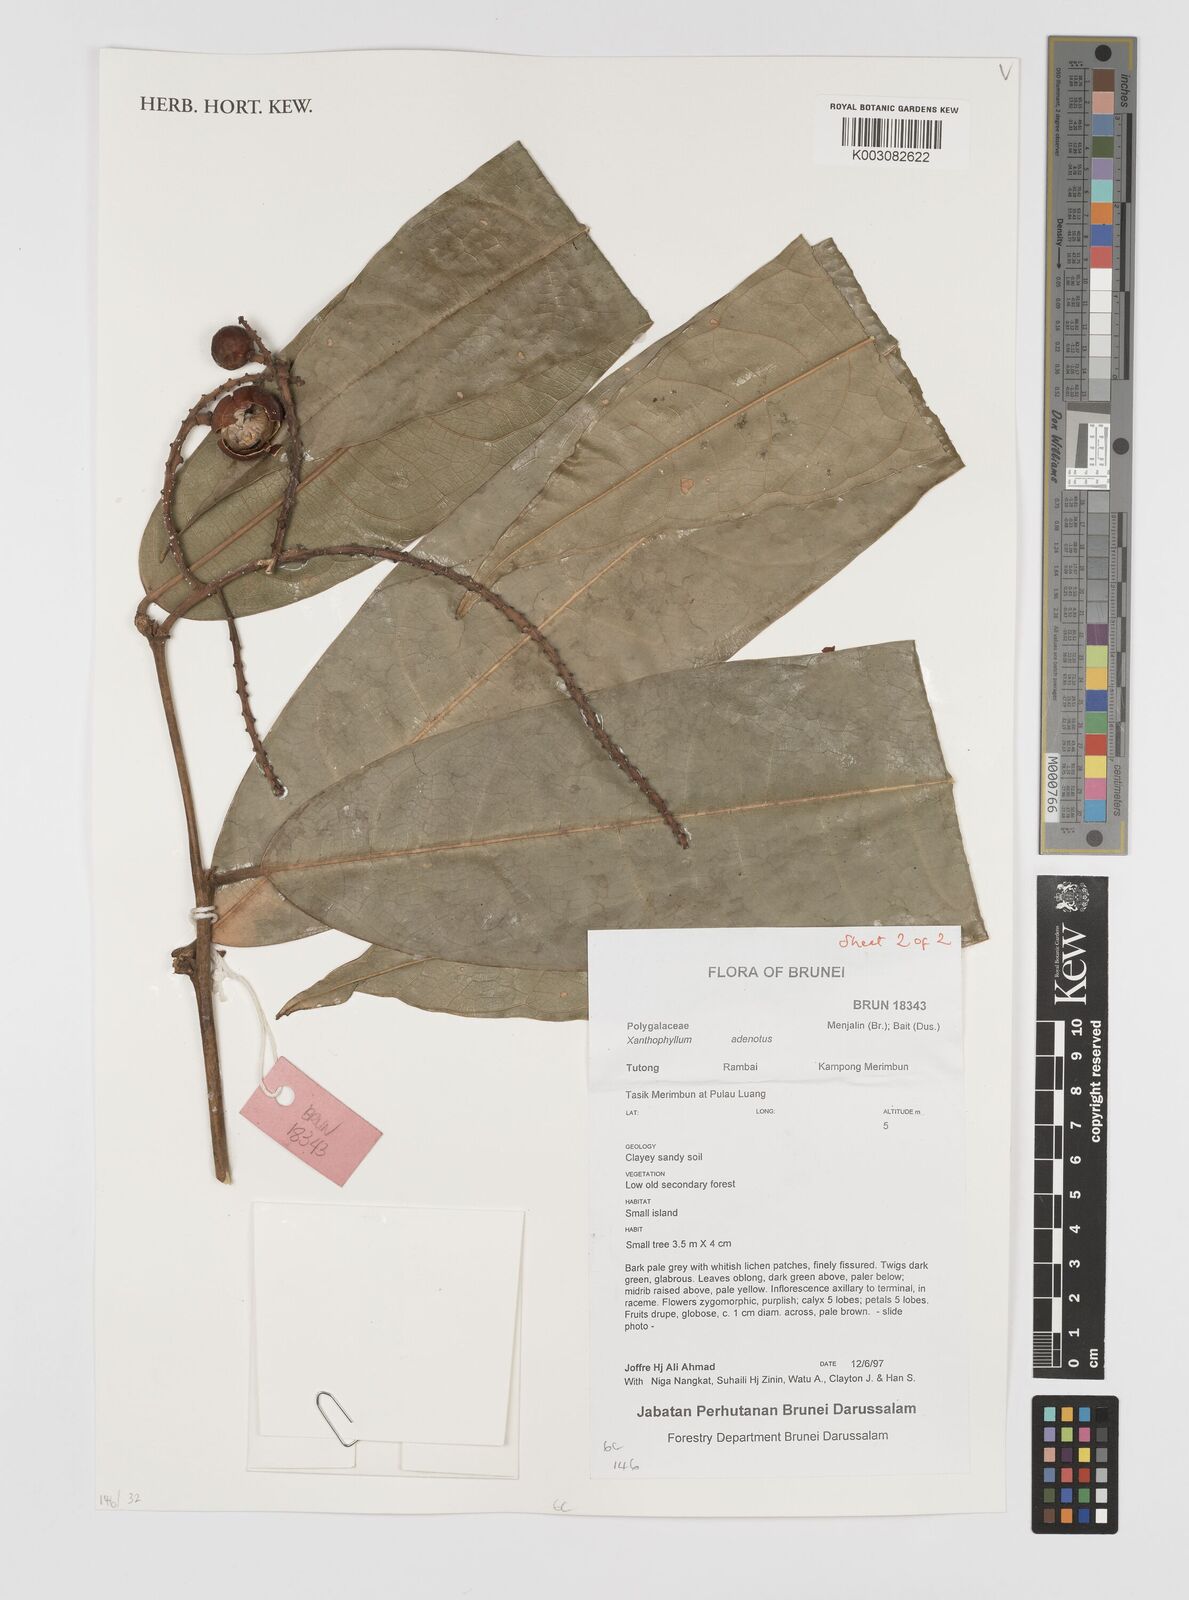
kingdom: Plantae
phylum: Tracheophyta
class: Magnoliopsida
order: Fabales
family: Polygalaceae
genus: Xanthophyllum
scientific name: Xanthophyllum adenotus
